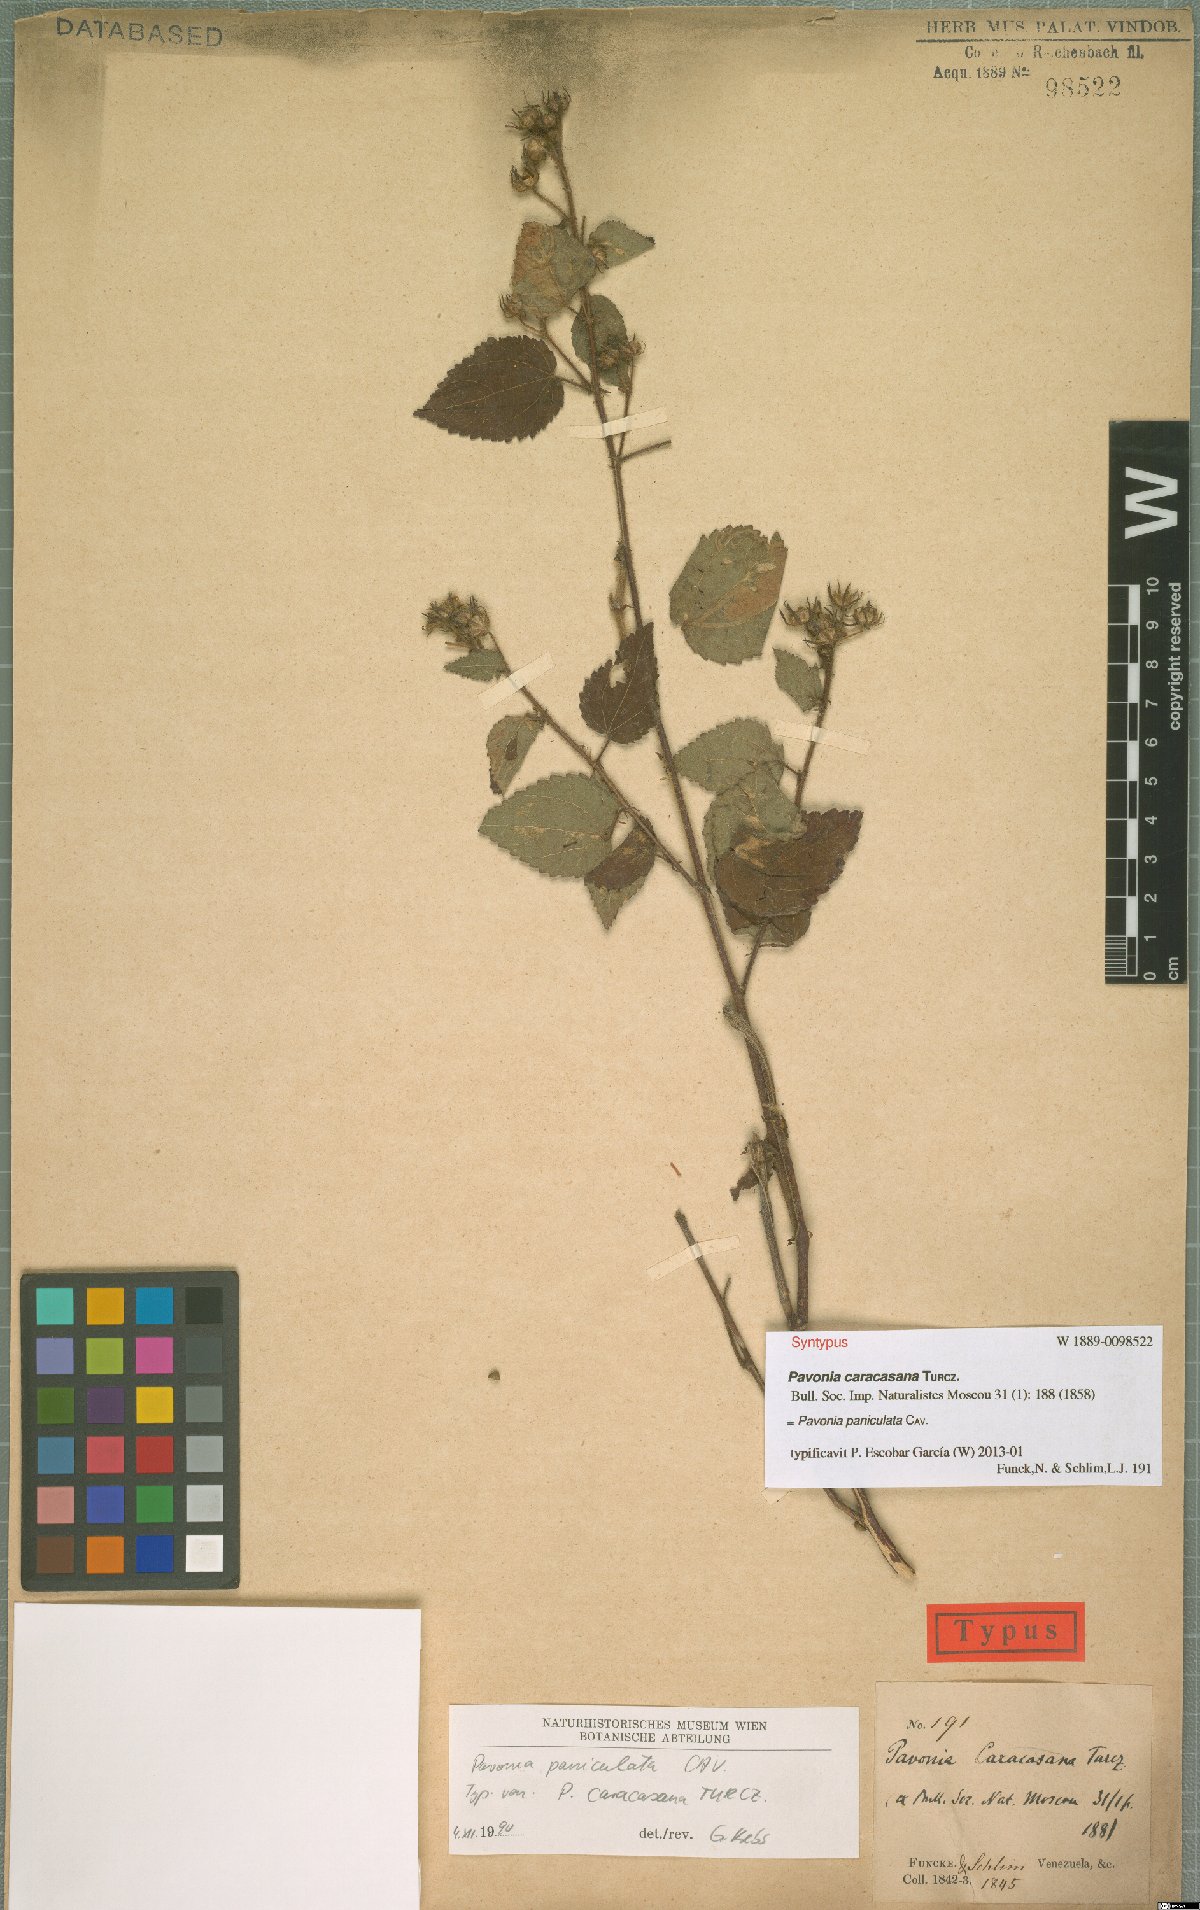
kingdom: Plantae
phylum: Tracheophyta
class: Magnoliopsida
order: Malvales
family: Malvaceae
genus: Pavonia
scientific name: Pavonia paniculata
